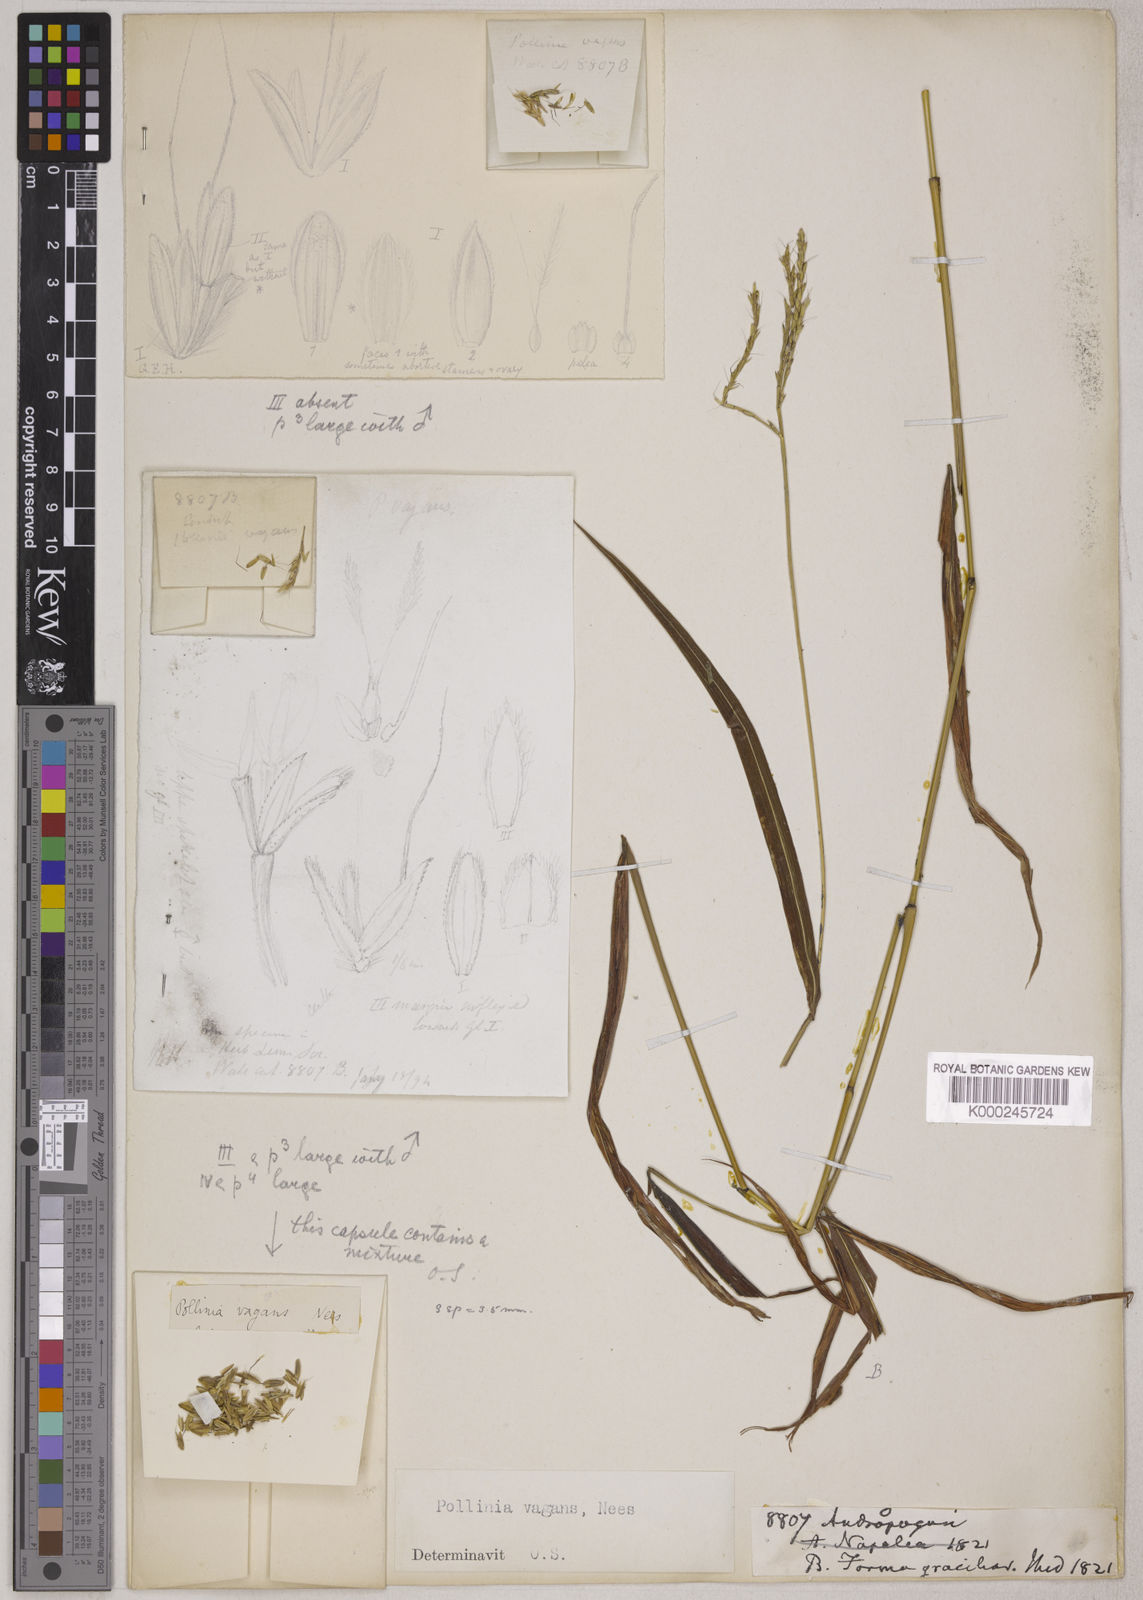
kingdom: Plantae
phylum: Tracheophyta
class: Liliopsida
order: Poales
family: Poaceae
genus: Microstegium
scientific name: Microstegium fasciculatum
